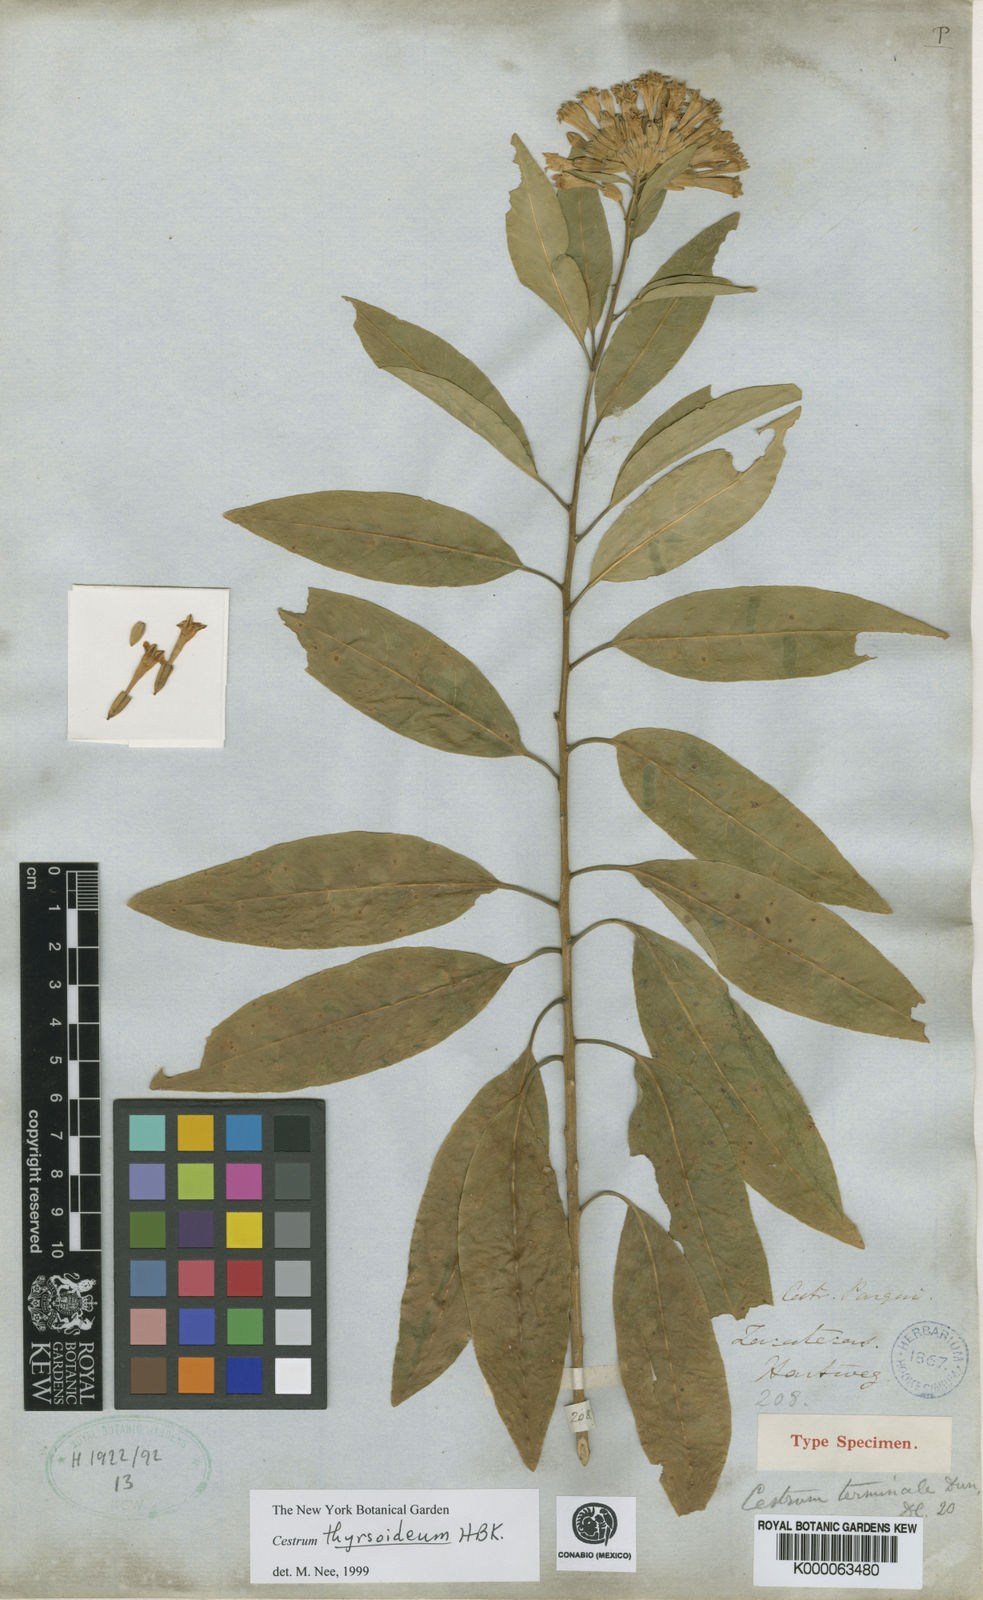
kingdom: Plantae
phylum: Tracheophyta
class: Magnoliopsida
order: Solanales
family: Solanaceae
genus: Cestrum
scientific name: Cestrum
